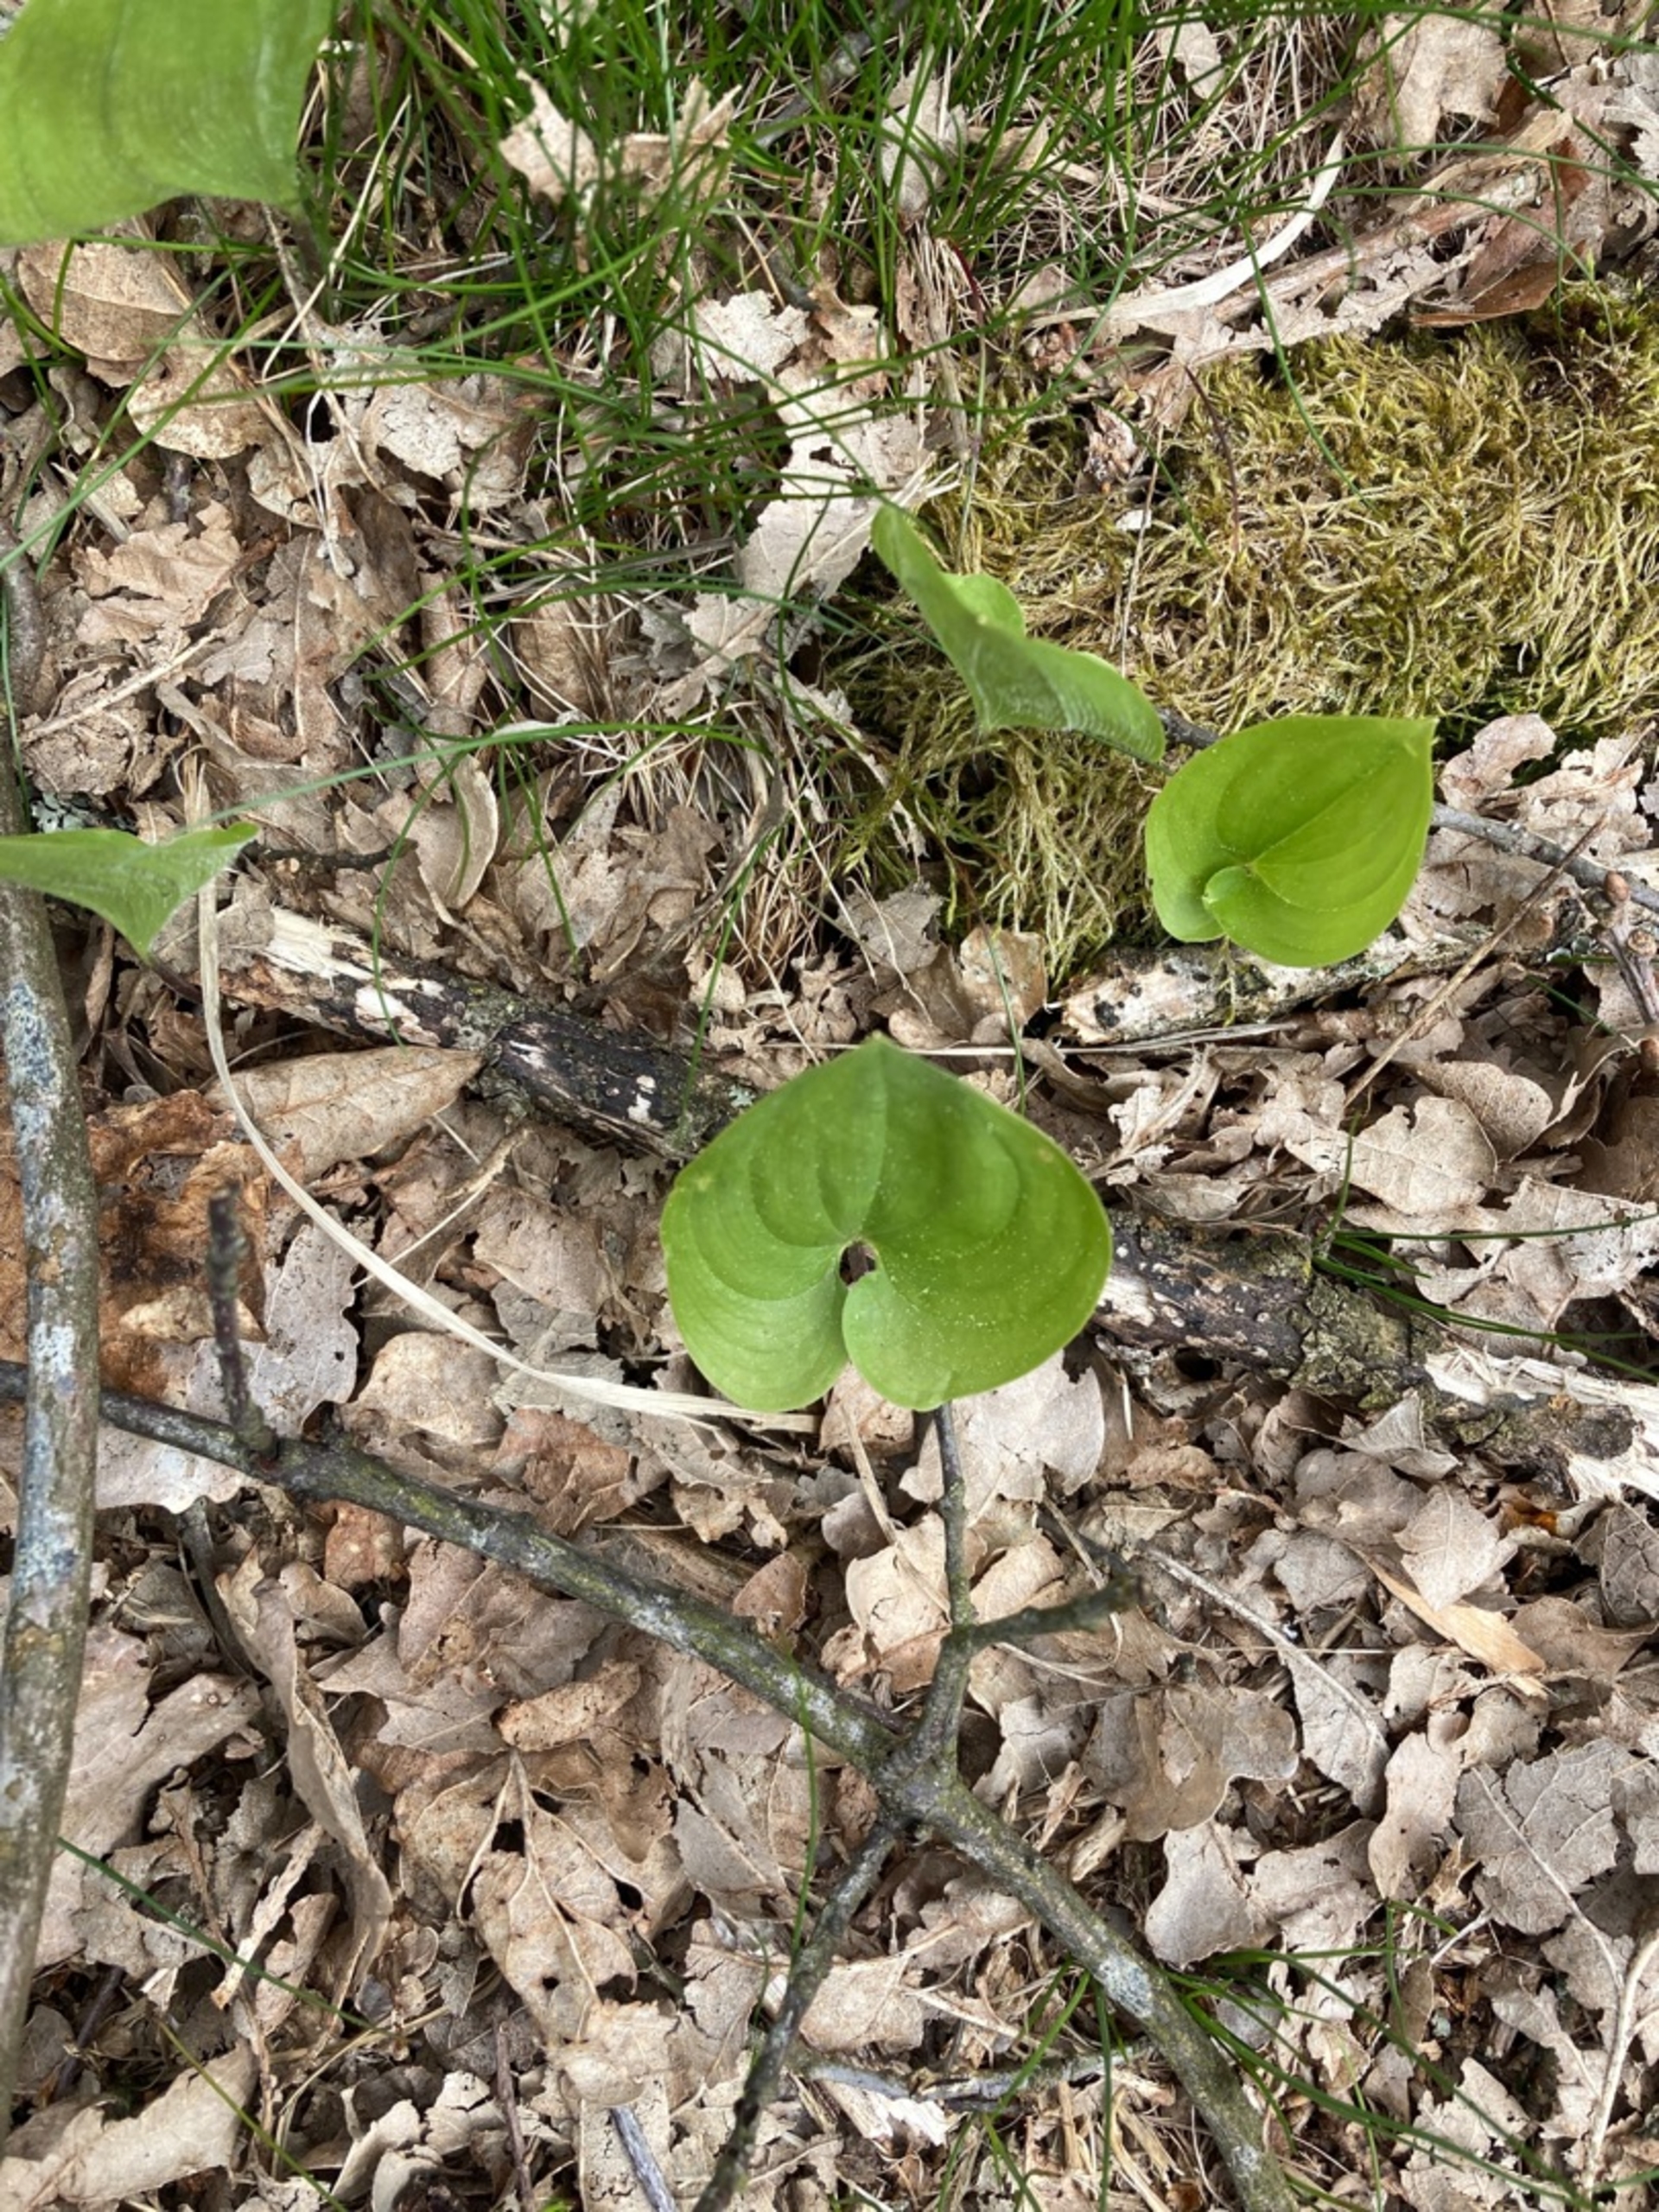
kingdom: Plantae
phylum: Tracheophyta
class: Liliopsida
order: Asparagales
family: Asparagaceae
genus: Maianthemum
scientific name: Maianthemum bifolium
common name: Majblomst
